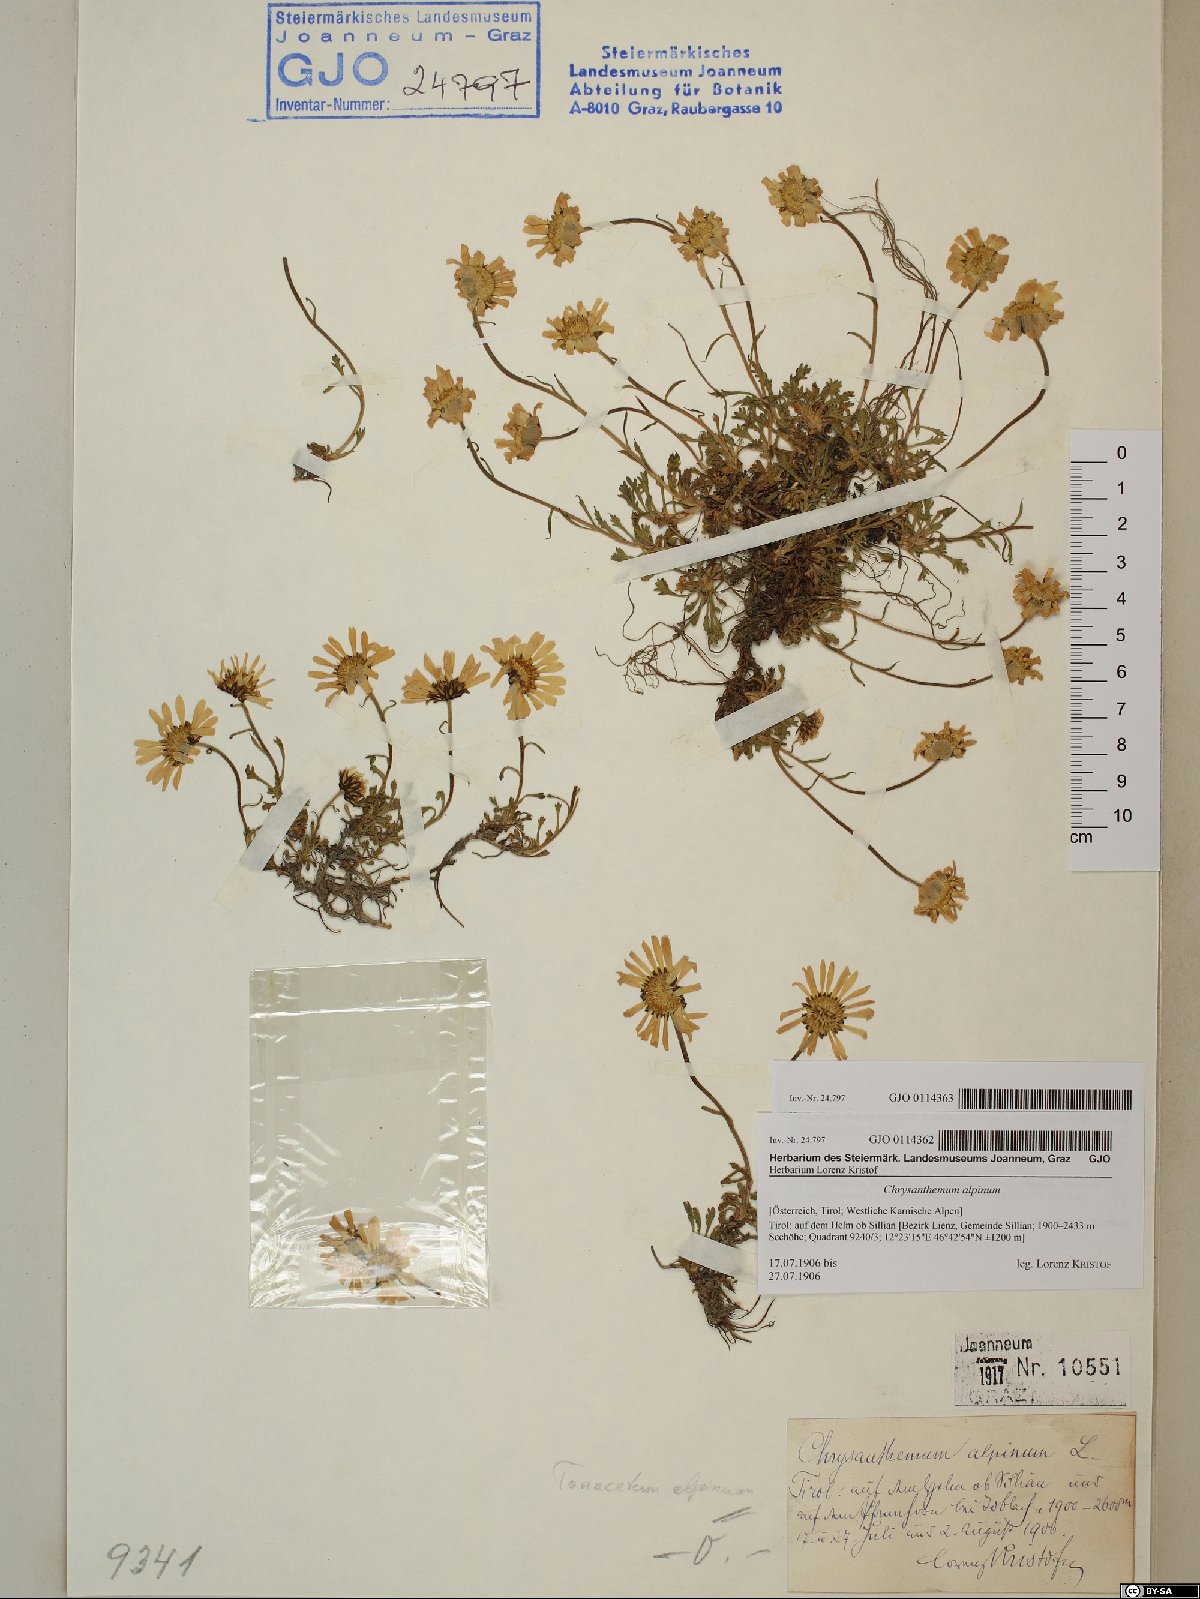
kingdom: Plantae
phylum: Tracheophyta
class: Magnoliopsida
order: Asterales
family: Asteraceae
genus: Leucanthemopsis
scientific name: Leucanthemopsis alpina
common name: Alpine moon daisy
